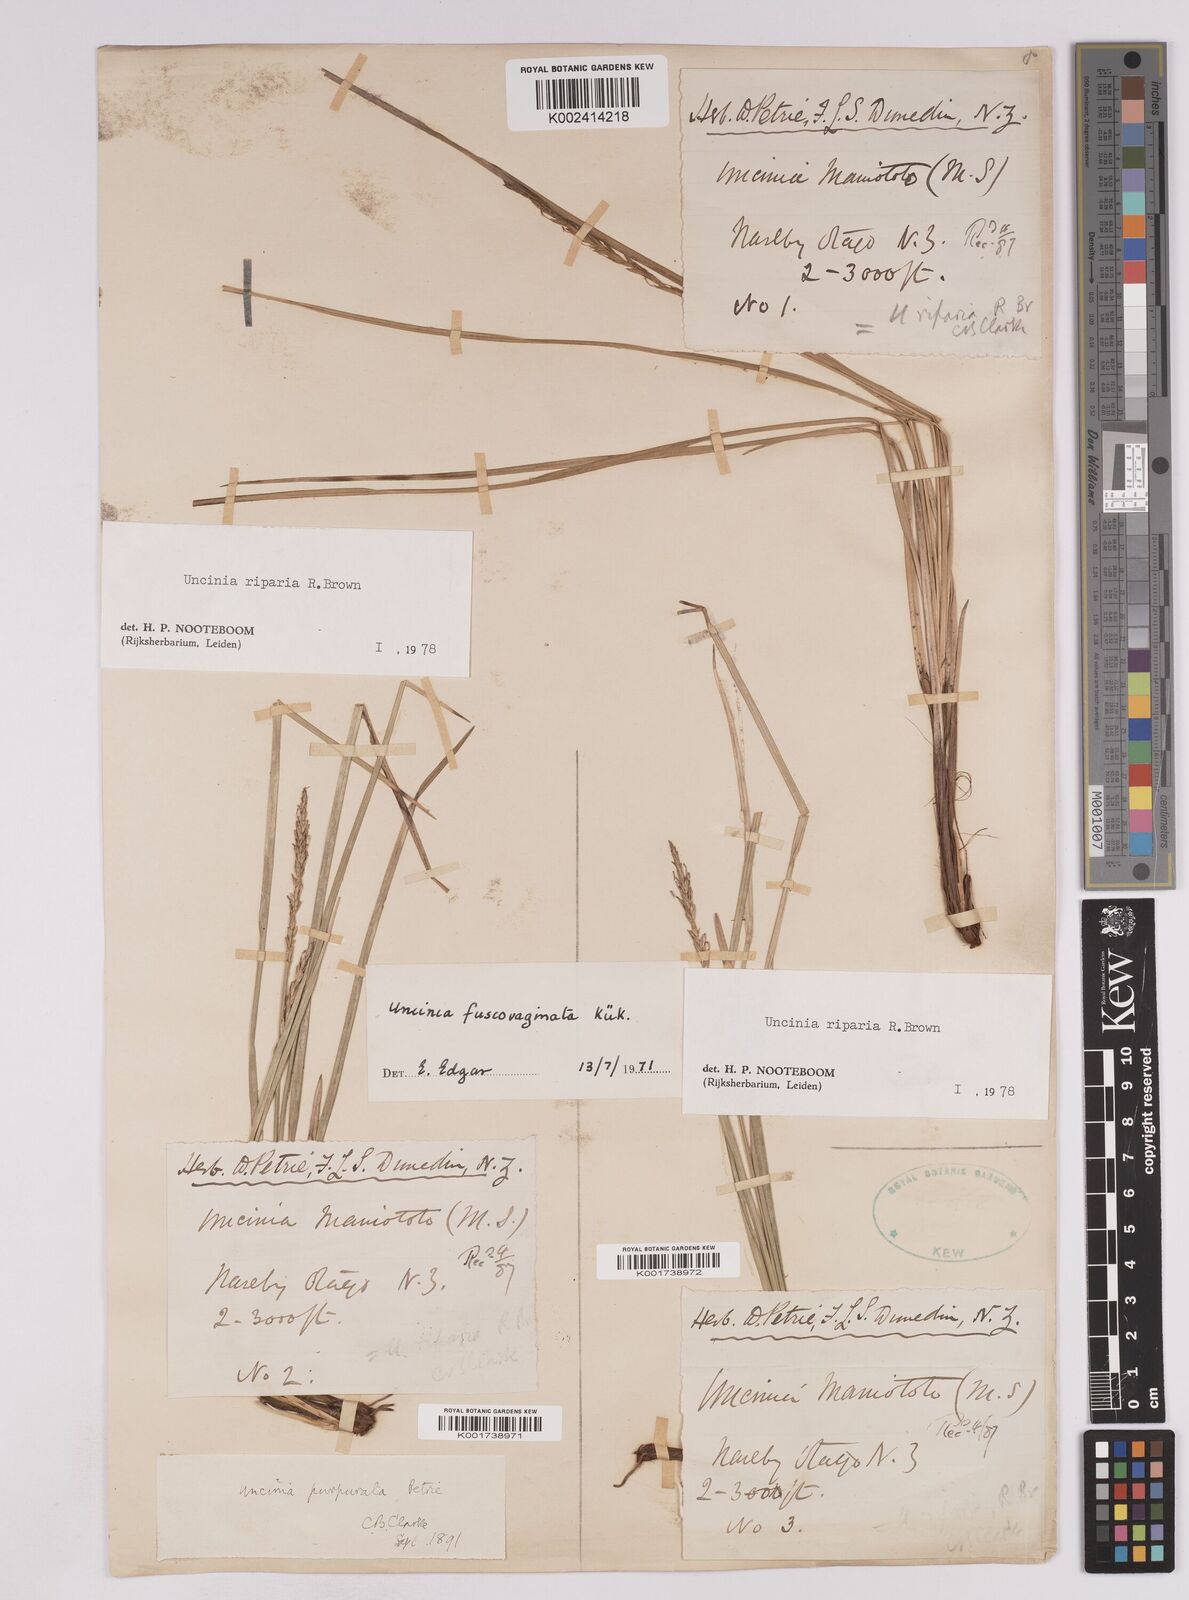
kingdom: Plantae
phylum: Tracheophyta
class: Liliopsida
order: Poales
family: Cyperaceae
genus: Carex
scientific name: Carex penalpina
